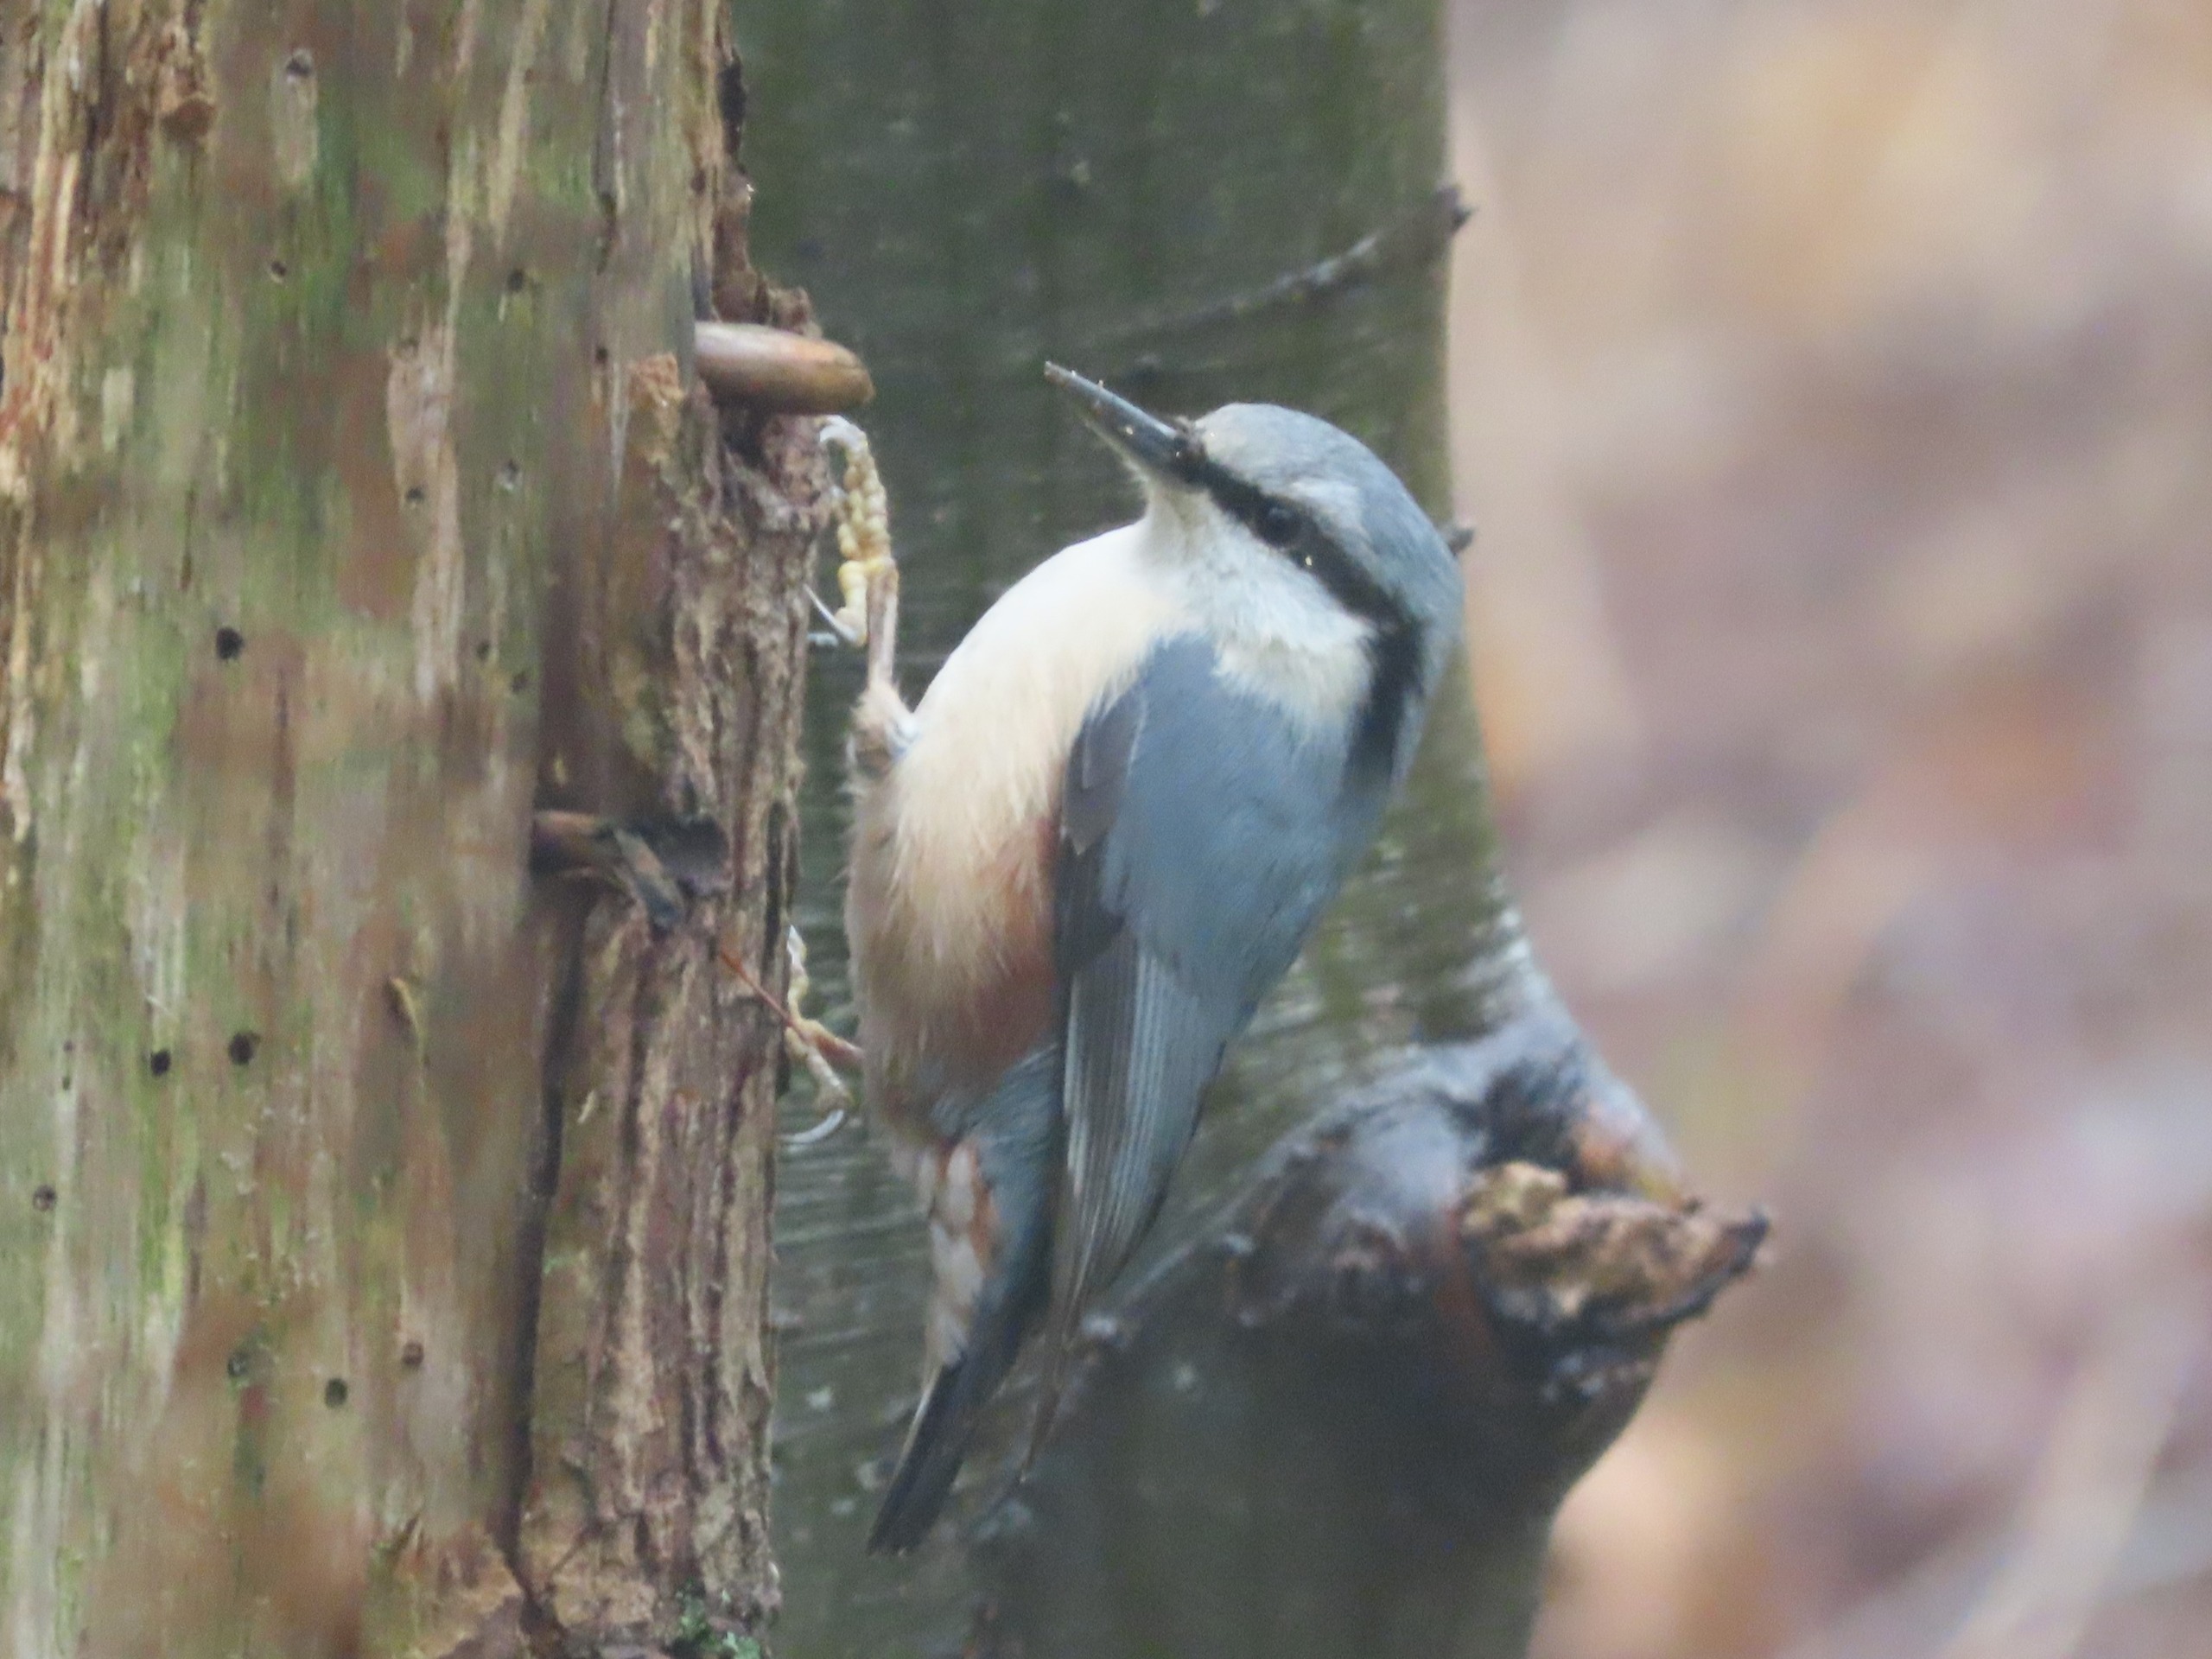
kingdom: Animalia
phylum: Chordata
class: Aves
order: Passeriformes
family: Sittidae
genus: Sitta
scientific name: Sitta europaea
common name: Spætmejse
